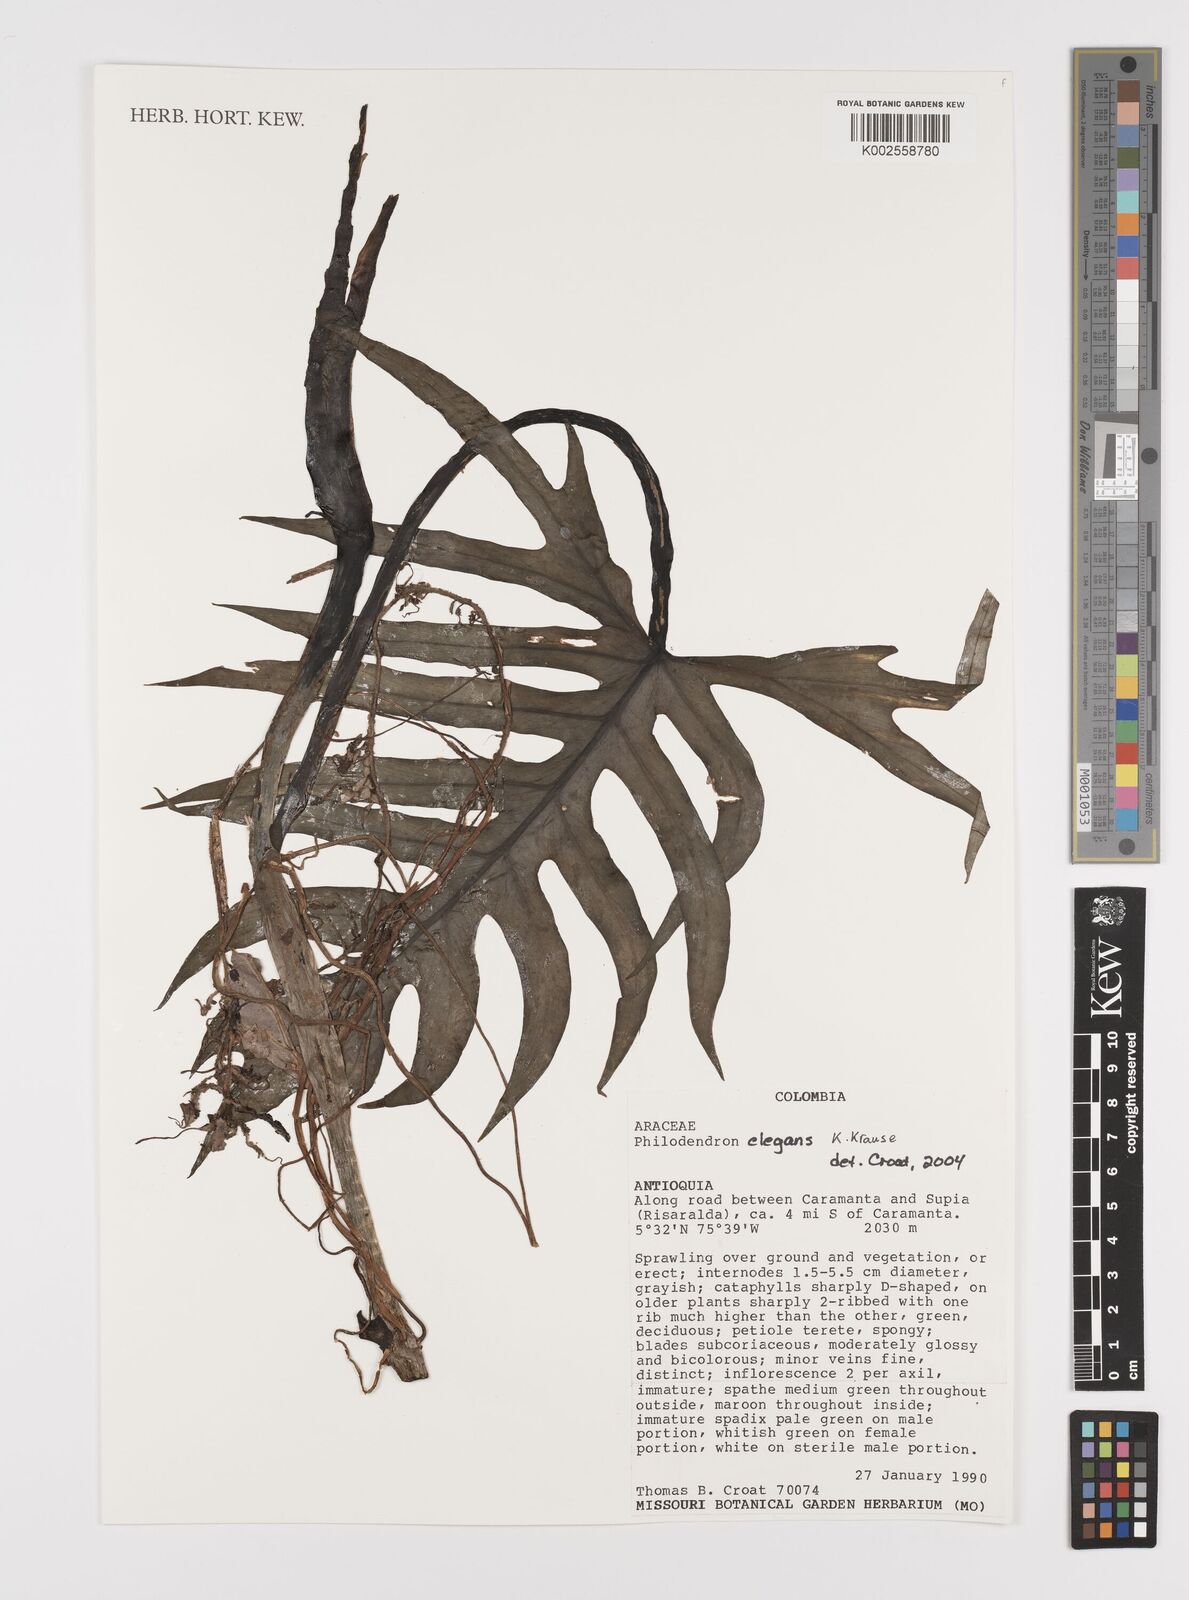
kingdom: Plantae
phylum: Tracheophyta
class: Liliopsida
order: Alismatales
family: Araceae
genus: Philodendron
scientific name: Philodendron elegans
